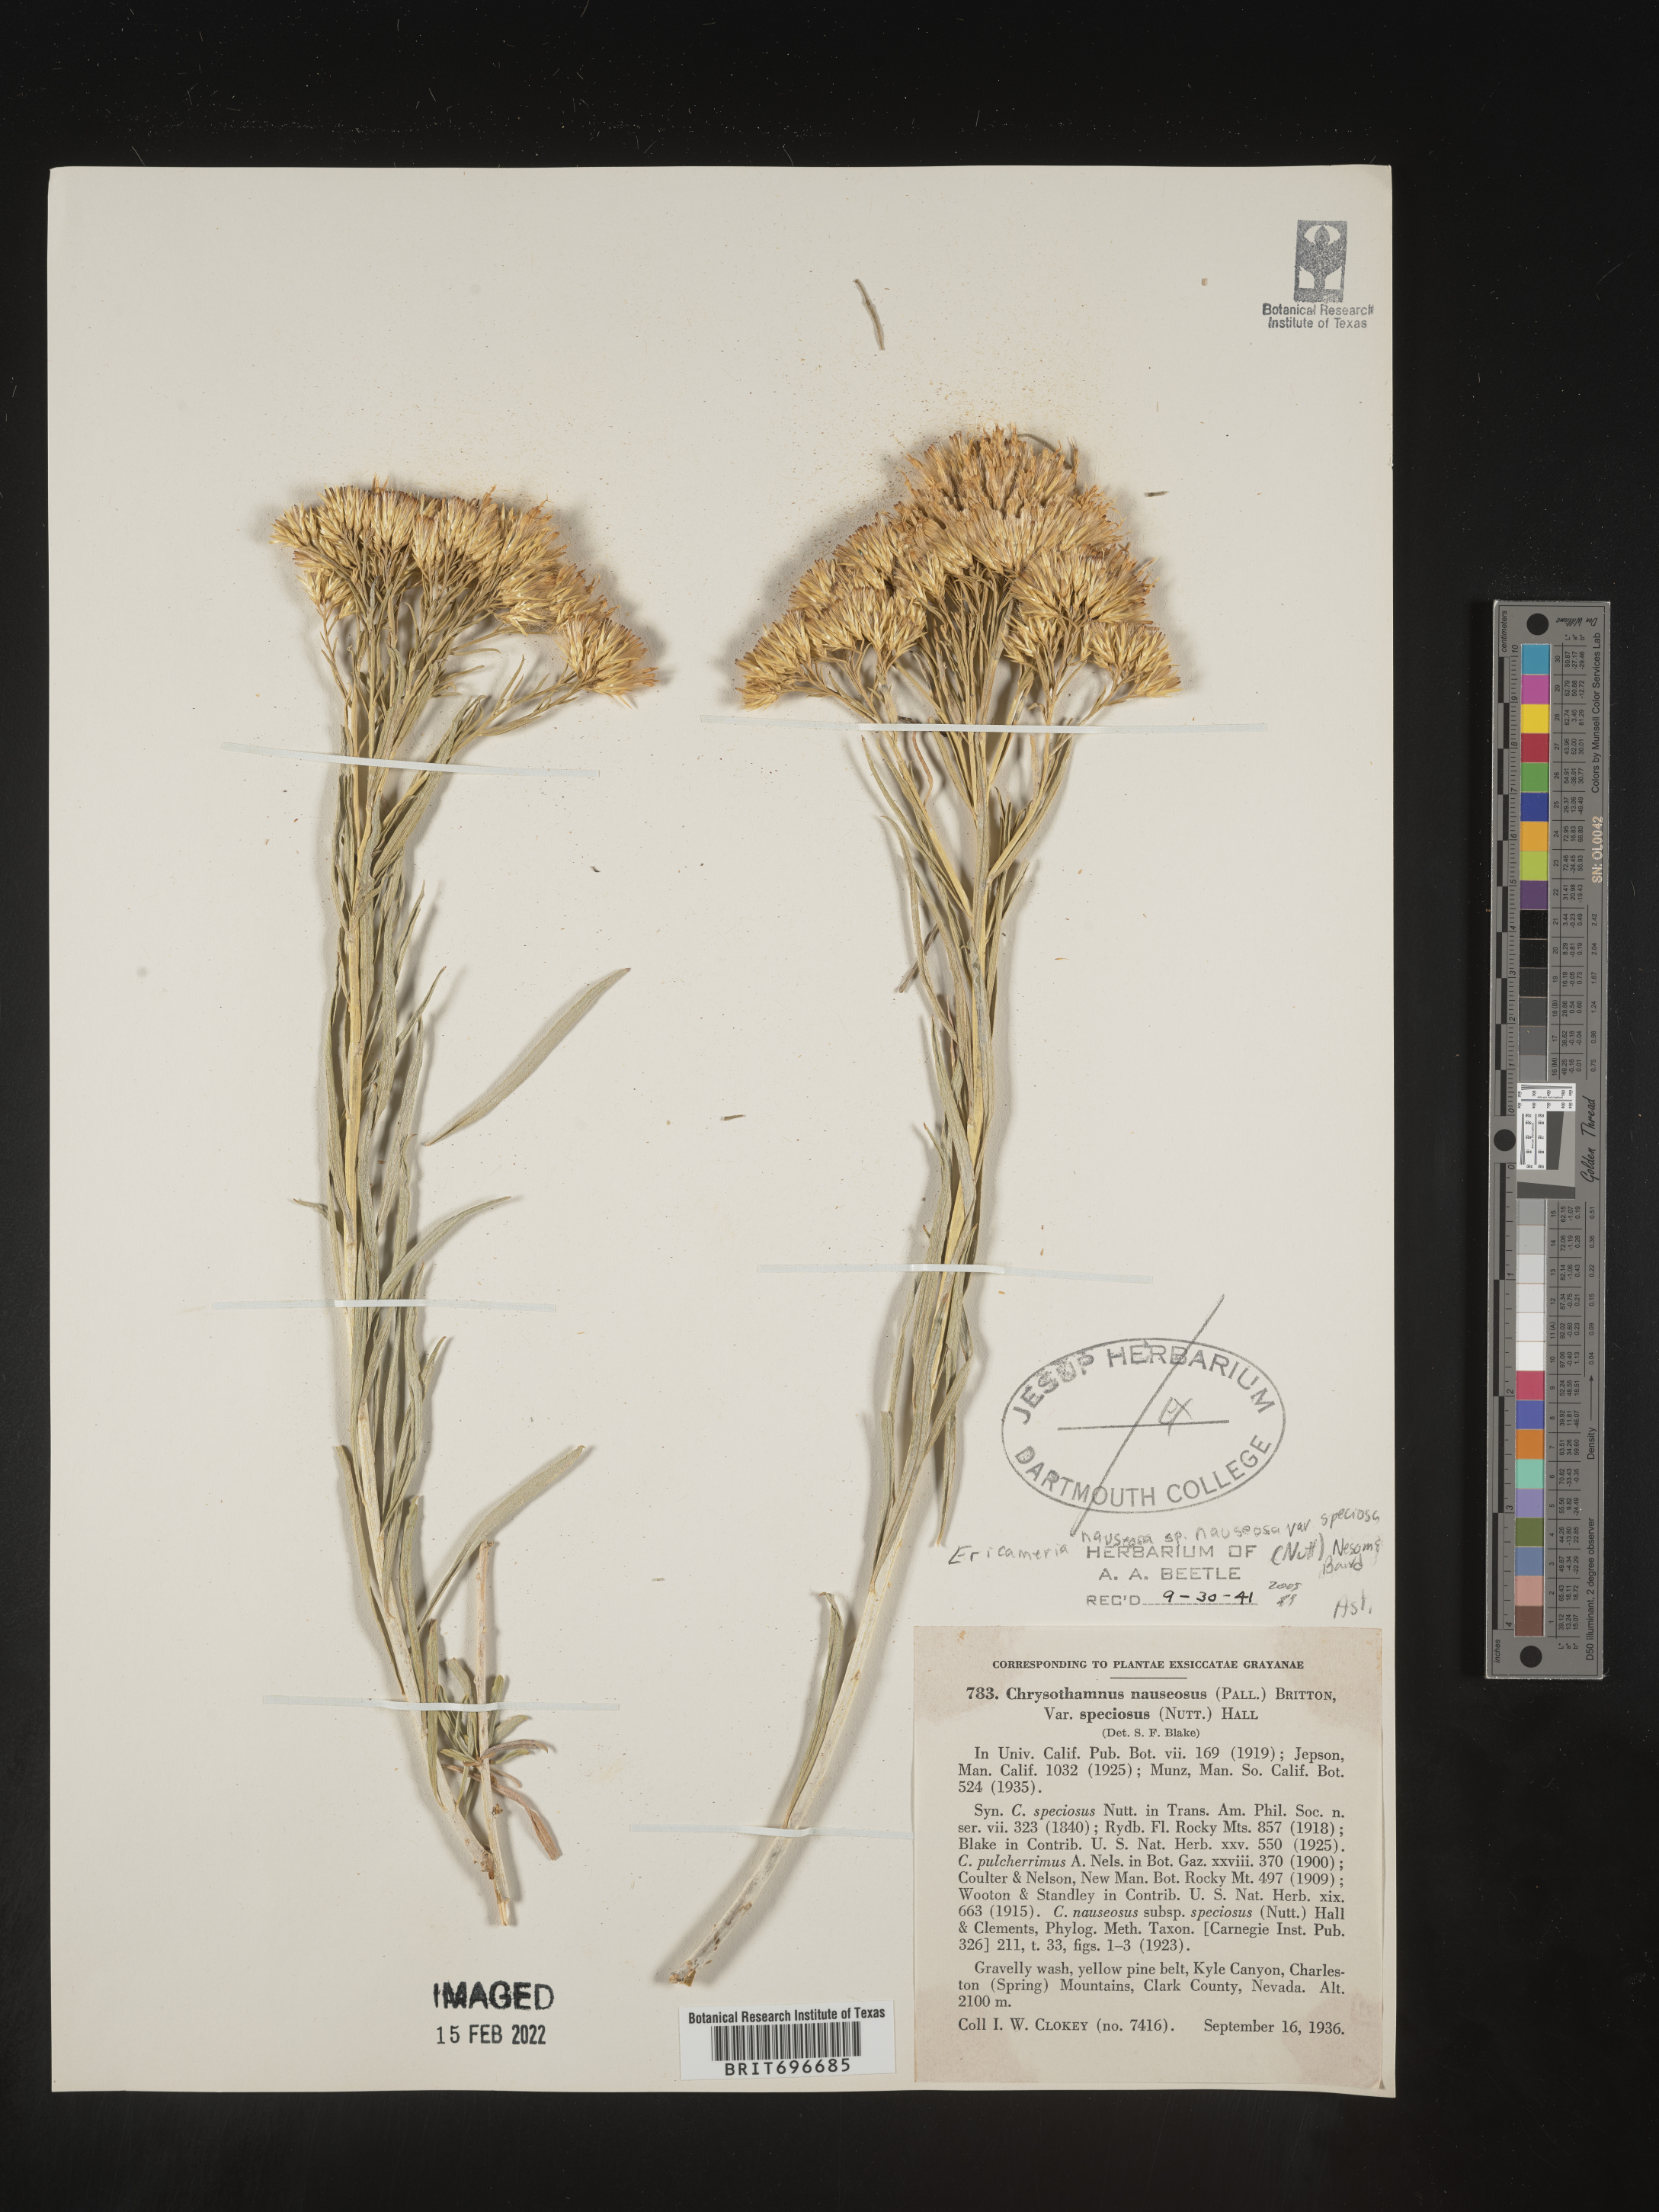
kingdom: Plantae
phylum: Tracheophyta
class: Magnoliopsida
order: Asterales
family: Asteraceae
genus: Ericameria
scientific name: Ericameria nauseosa
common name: Rubber rabbitbrush
